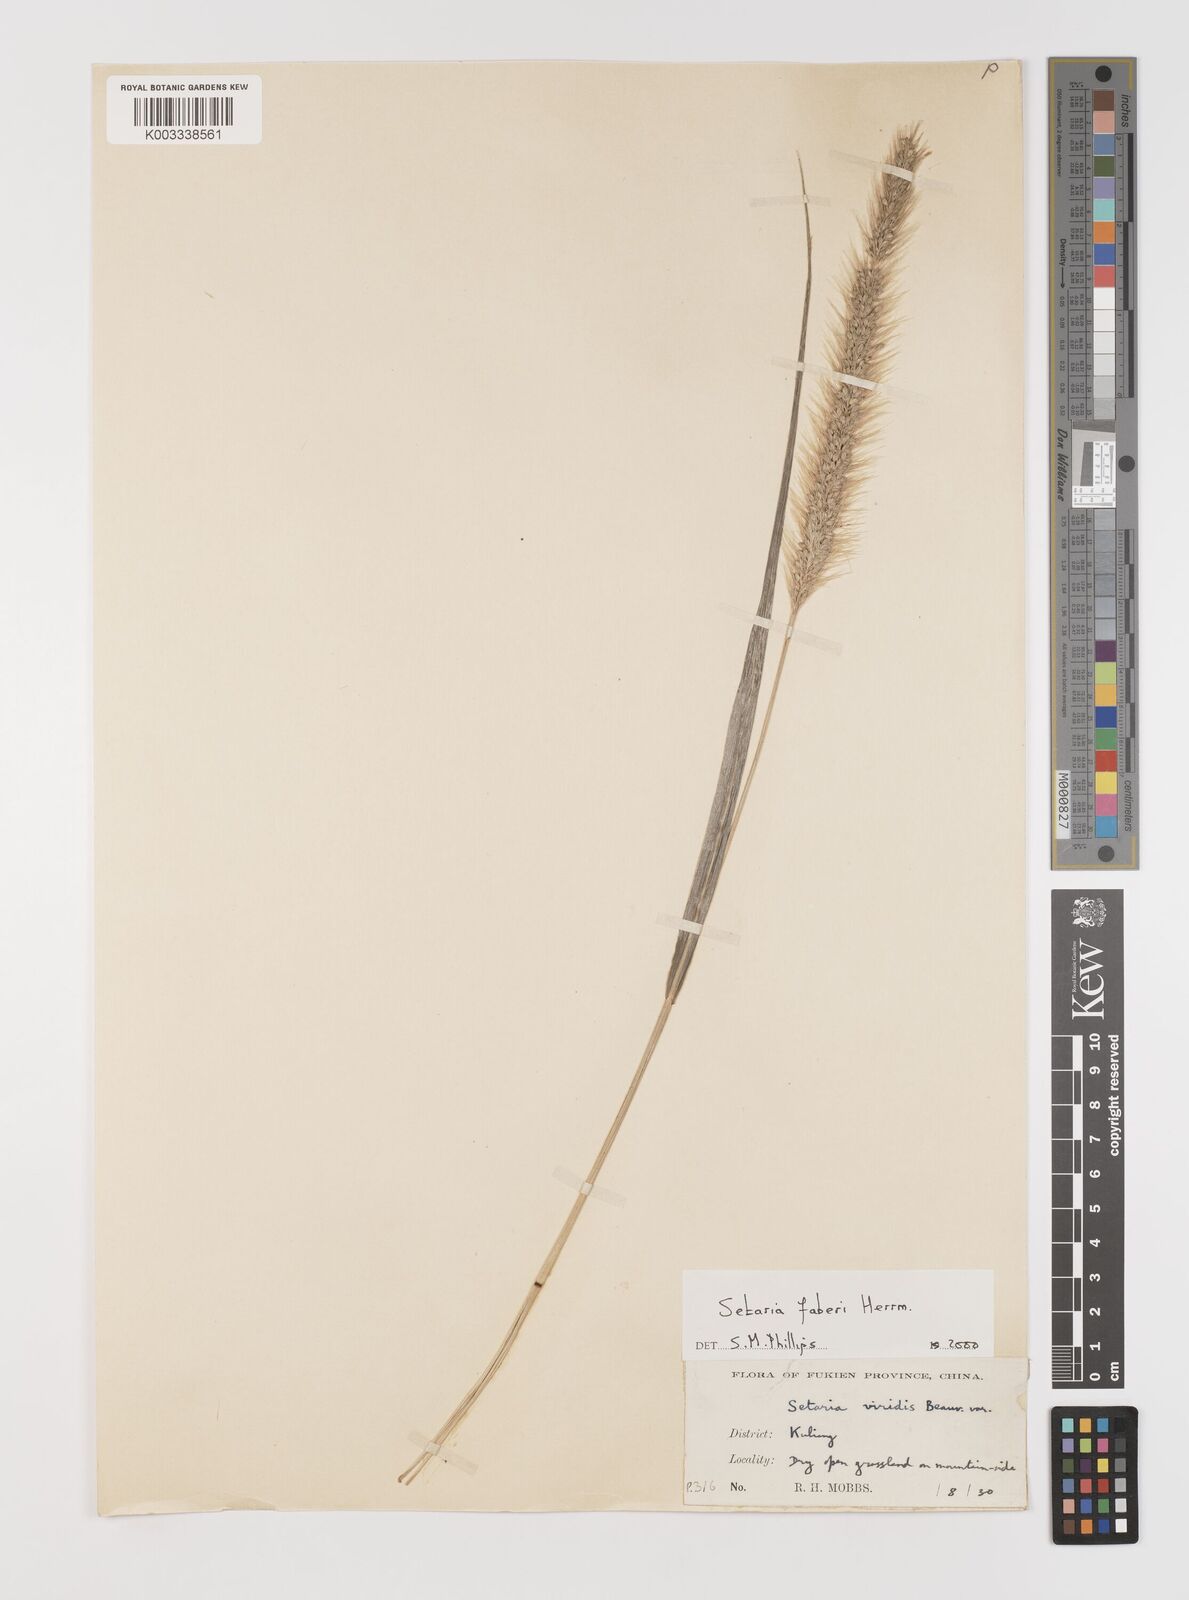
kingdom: Plantae
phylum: Tracheophyta
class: Liliopsida
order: Poales
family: Poaceae
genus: Setaria
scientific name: Setaria faberi
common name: Nodding bristle-grass
